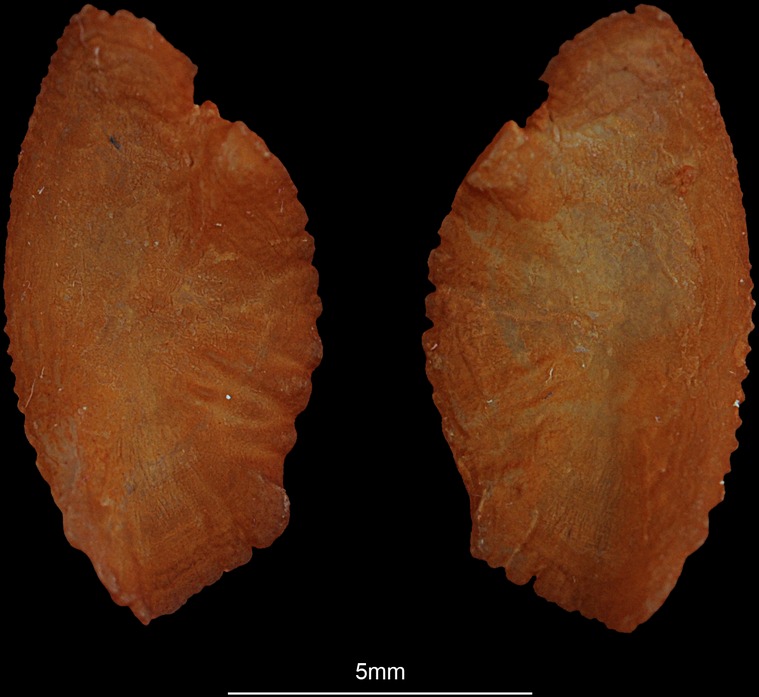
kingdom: Animalia
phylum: Chordata
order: Perciformes
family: Haemulidae
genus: Diagramma
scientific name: Diagramma pictum
